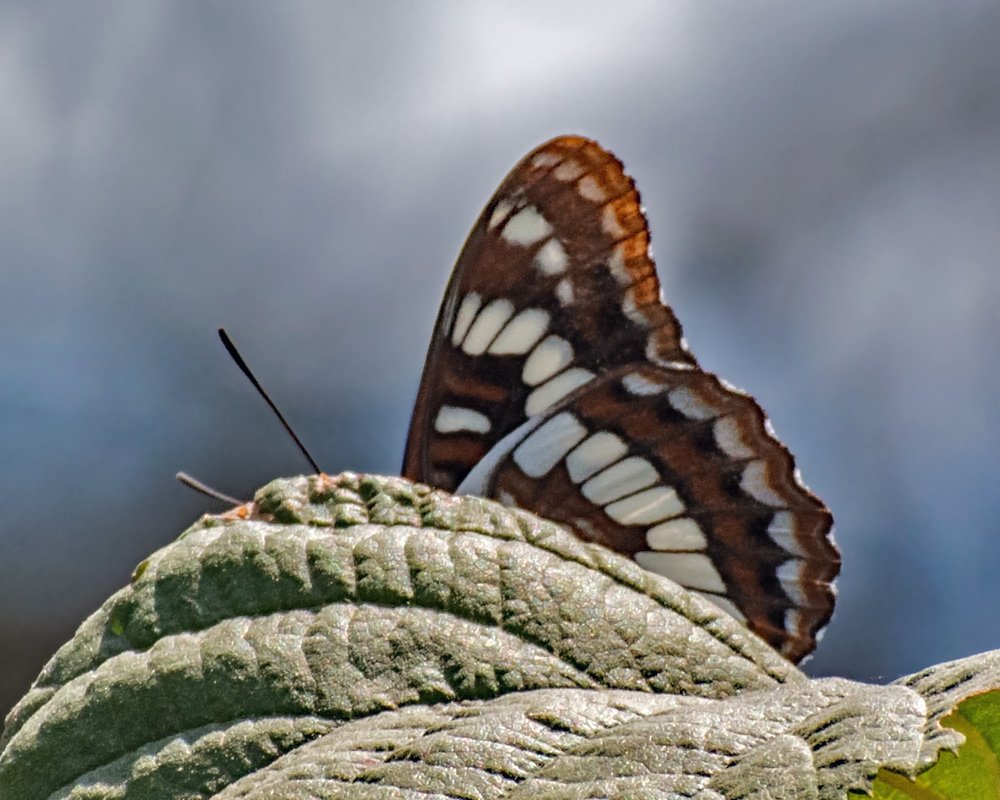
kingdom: Animalia
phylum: Arthropoda
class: Insecta
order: Lepidoptera
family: Nymphalidae
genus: Limenitis
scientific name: Limenitis lorquini
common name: Lorquin's Admiral
